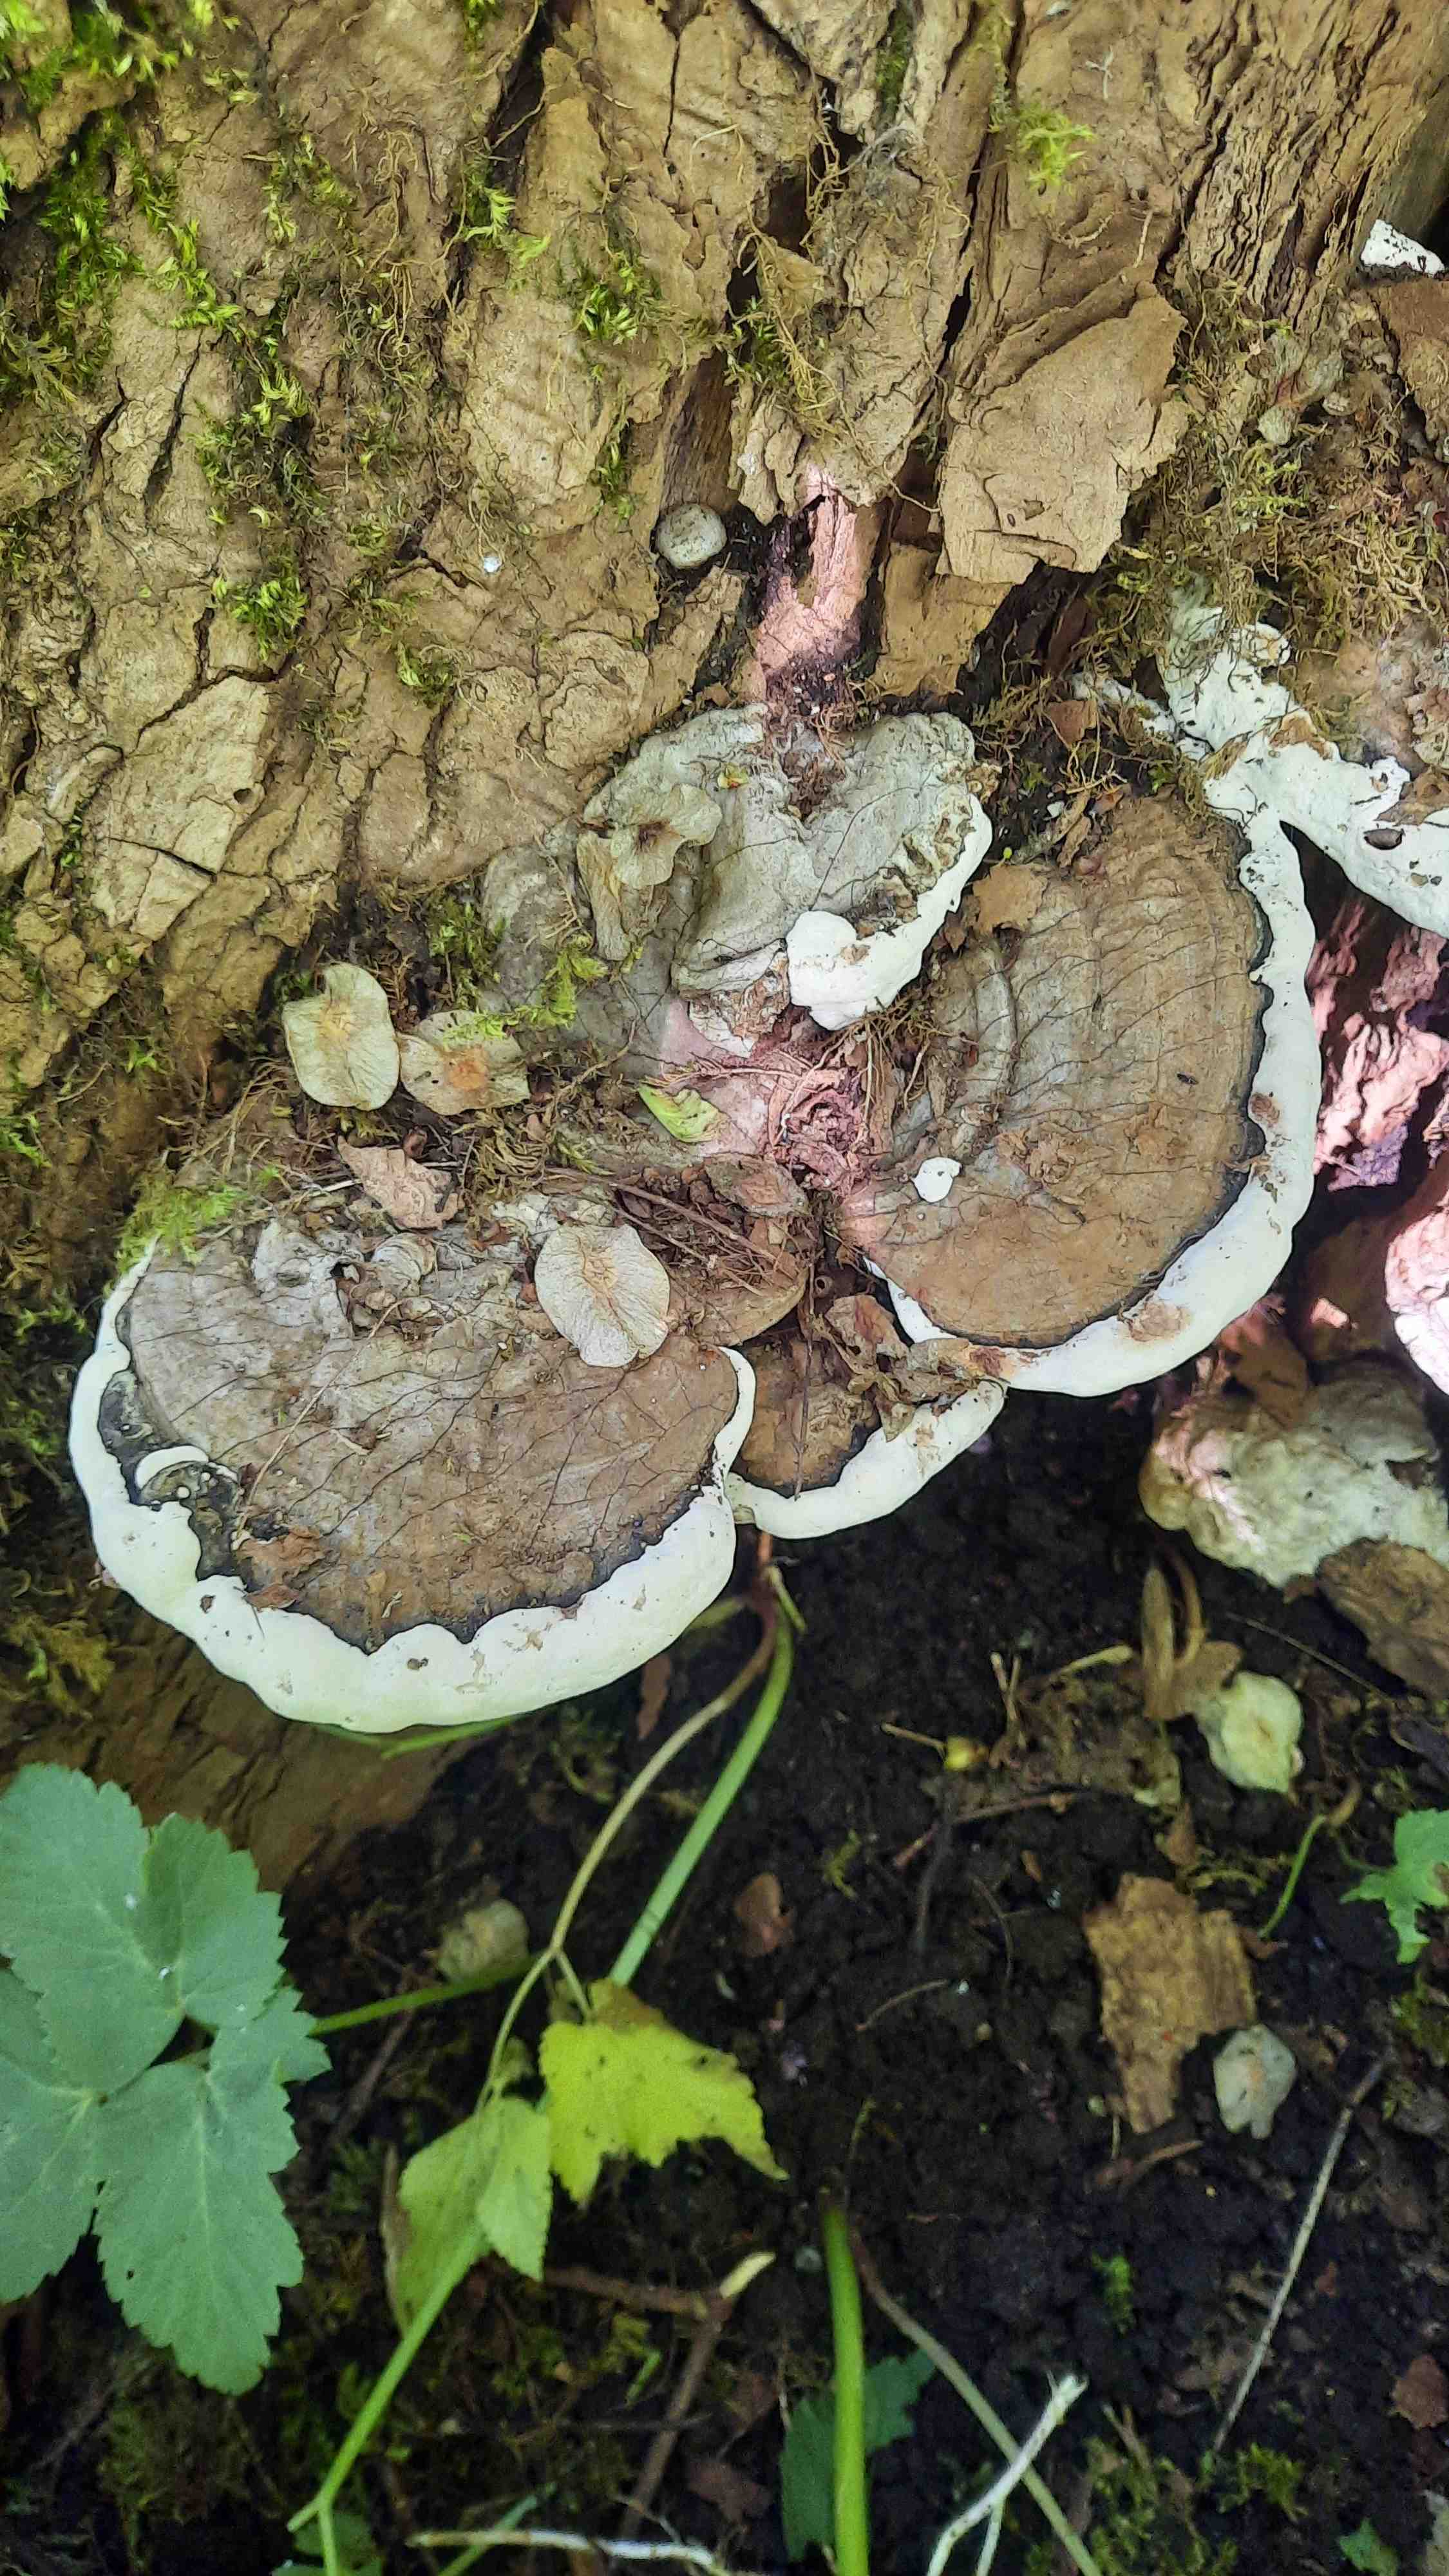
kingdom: Fungi
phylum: Basidiomycota
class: Agaricomycetes
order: Polyporales
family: Polyporaceae
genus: Ganoderma
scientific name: Ganoderma applanatum
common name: flad lakporesvamp
